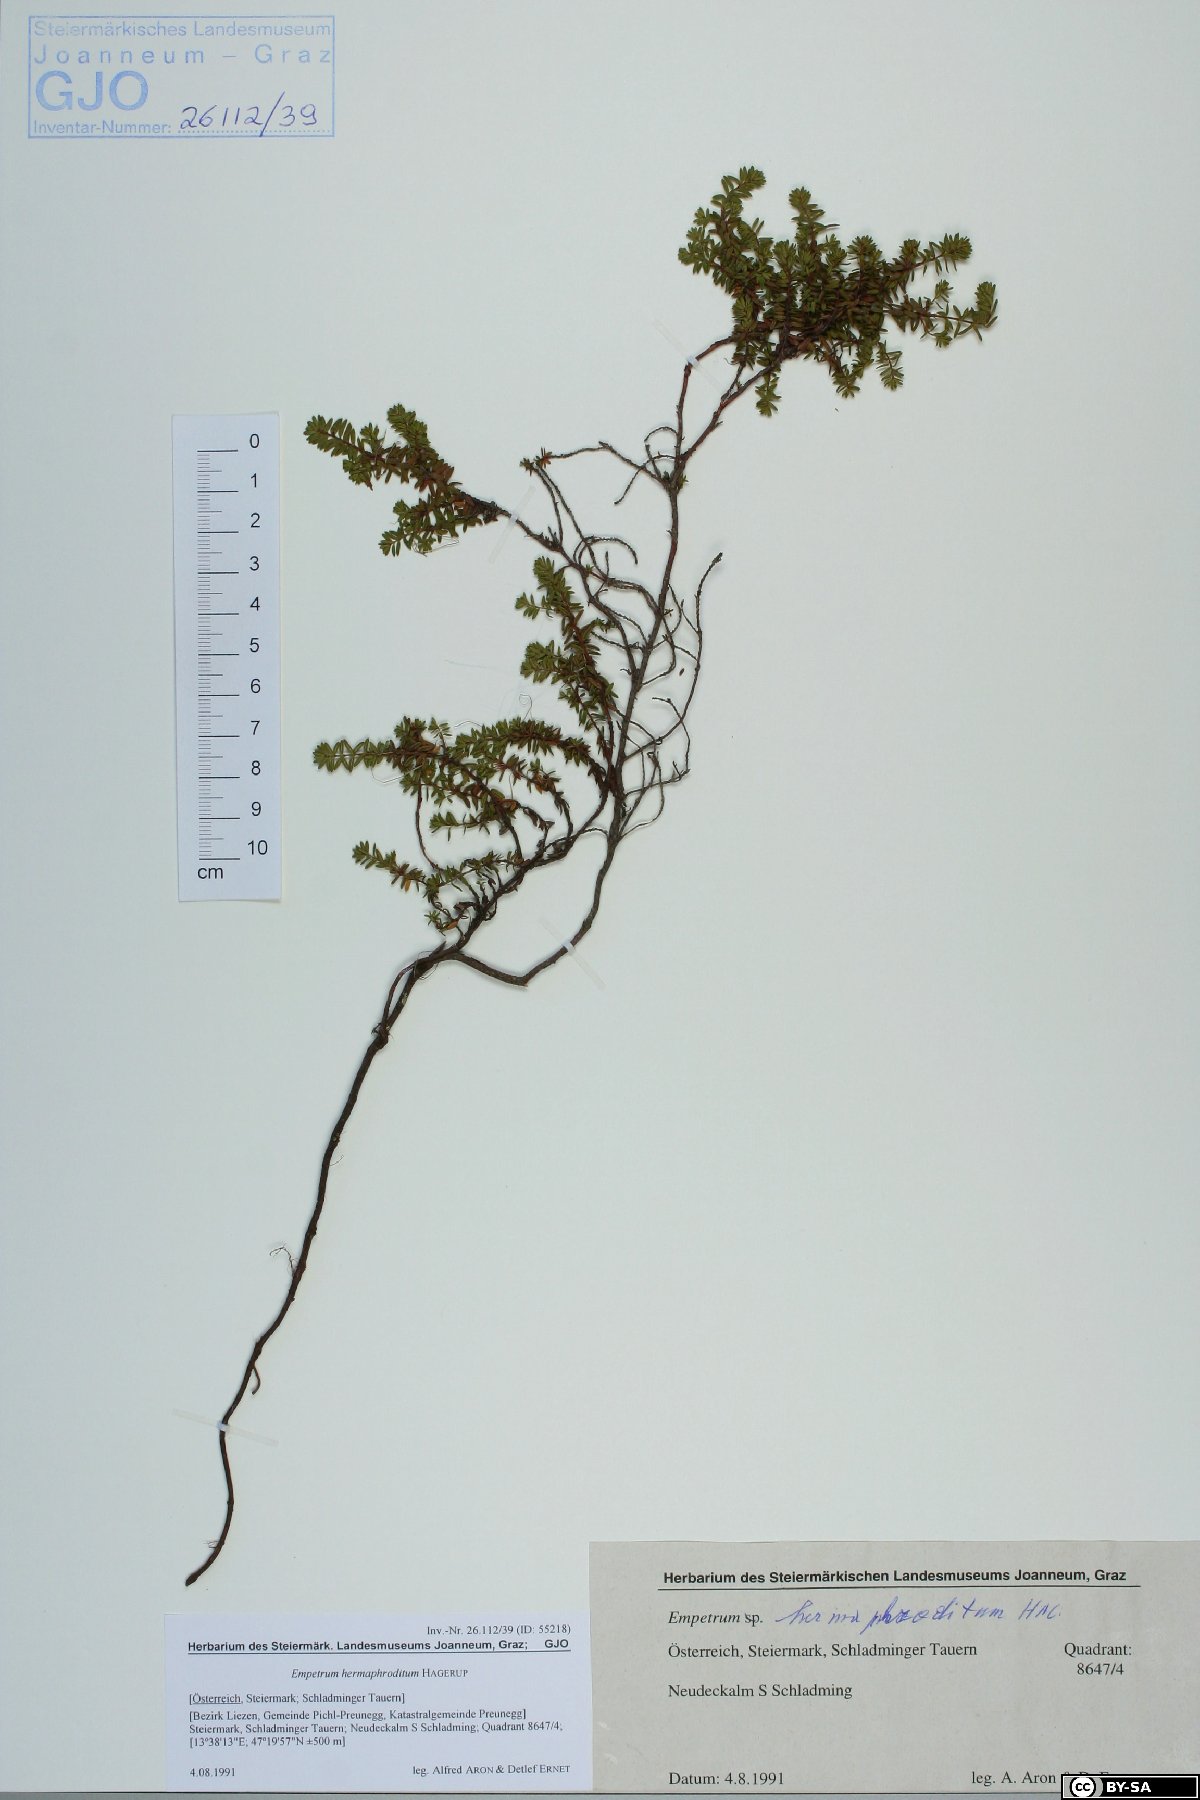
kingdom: Plantae
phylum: Tracheophyta
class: Magnoliopsida
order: Ericales
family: Ericaceae
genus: Empetrum
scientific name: Empetrum hermaphroditum
